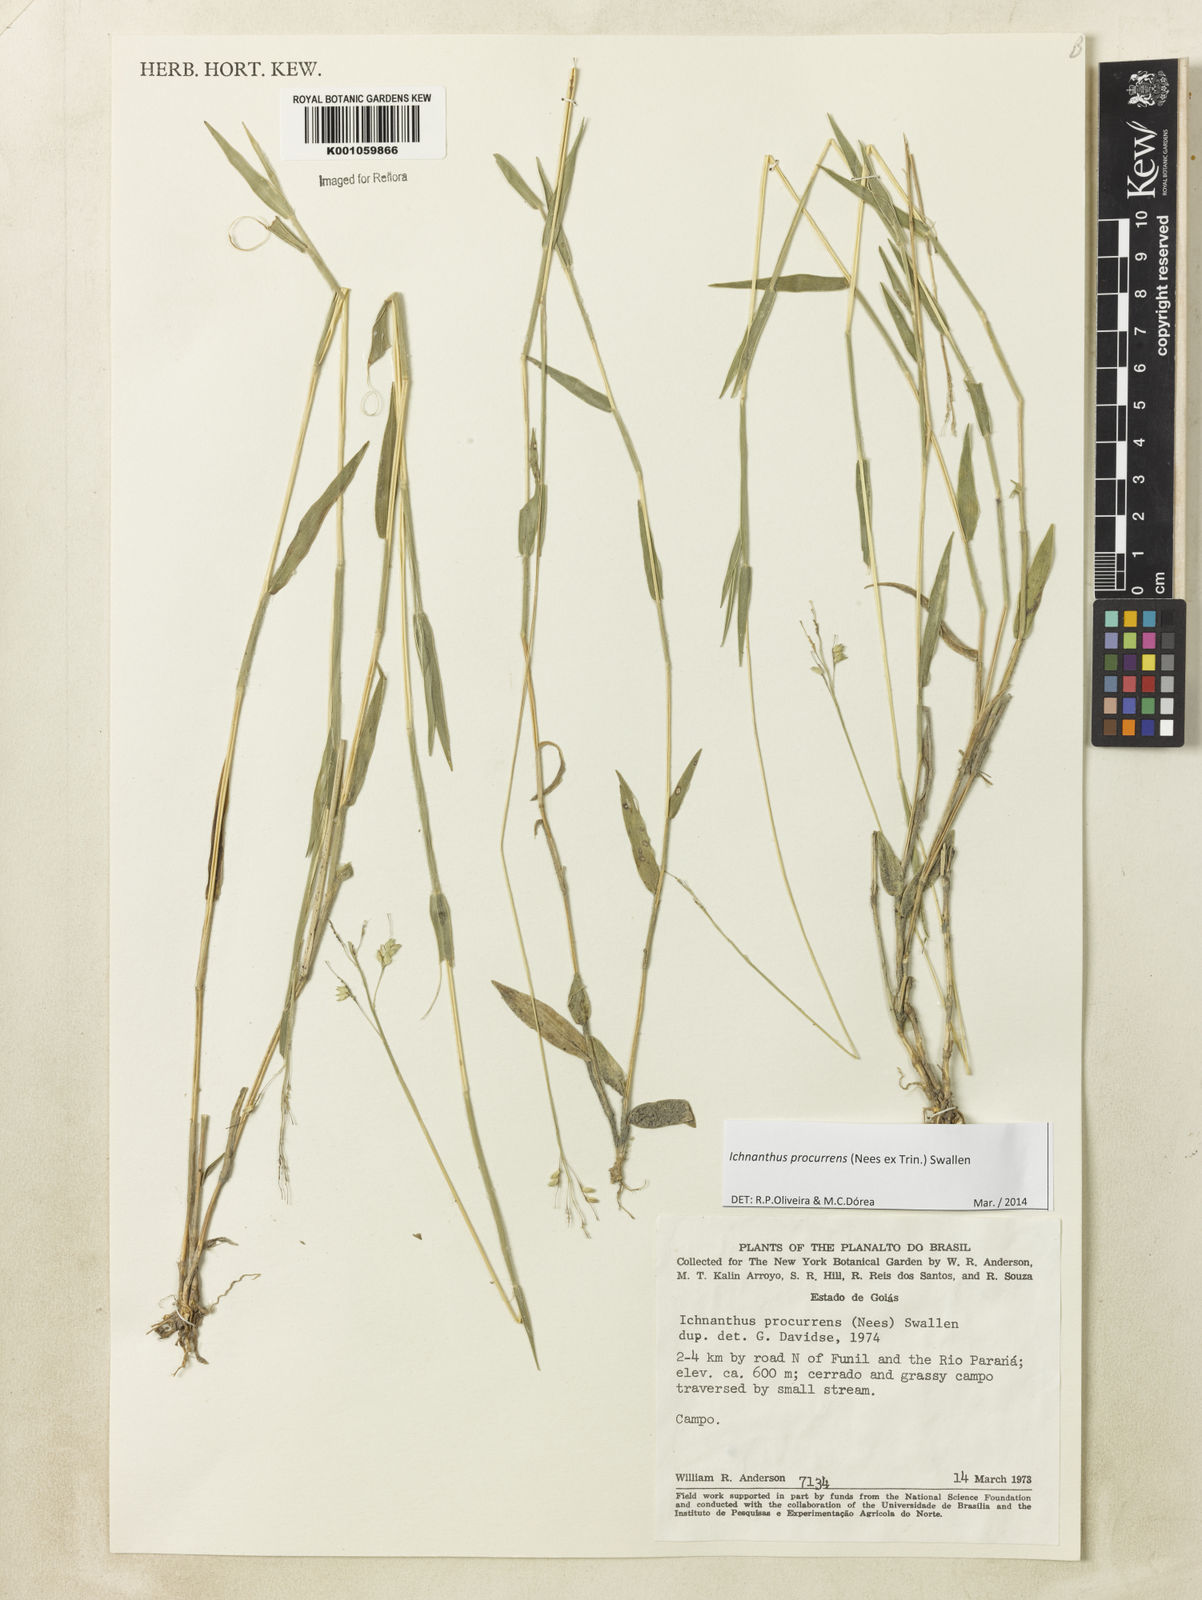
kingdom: Plantae
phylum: Tracheophyta
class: Liliopsida
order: Poales
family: Poaceae
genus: Oedochloa
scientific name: Oedochloa procurrens
